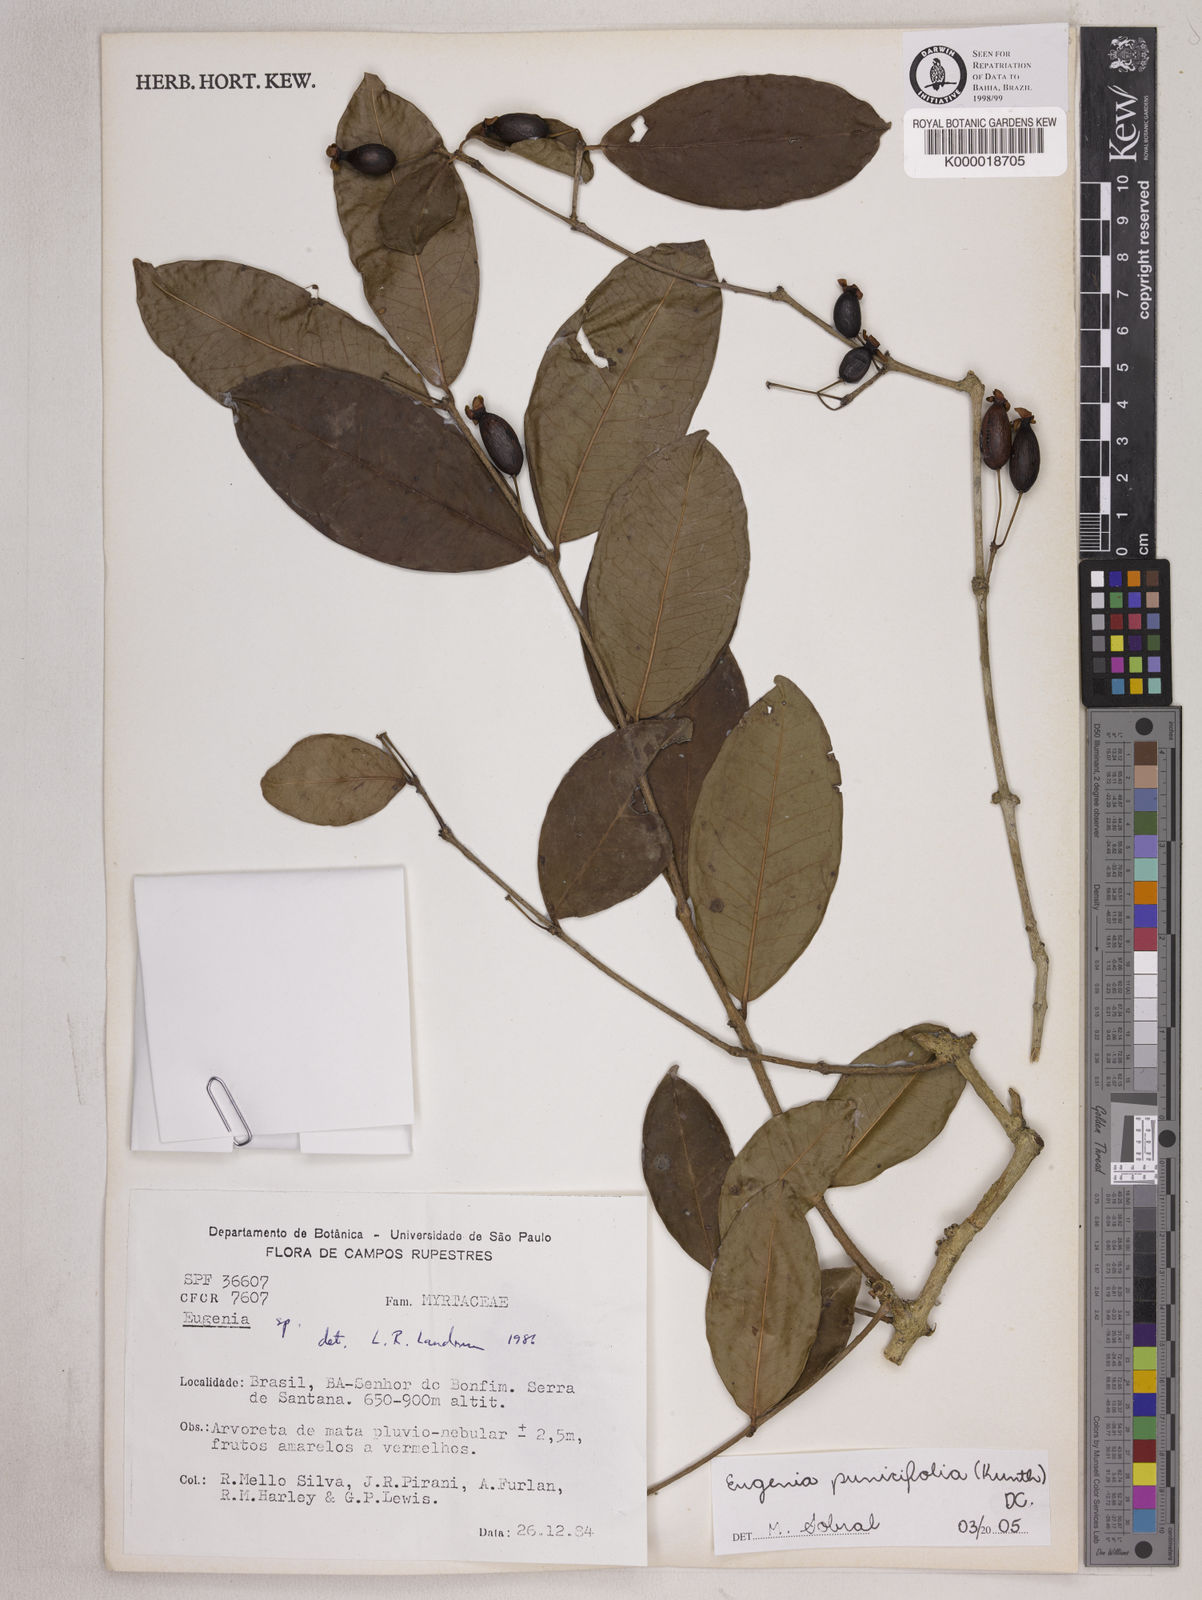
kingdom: Plantae
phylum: Tracheophyta
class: Magnoliopsida
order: Myrtales
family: Myrtaceae
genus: Eugenia
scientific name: Eugenia
